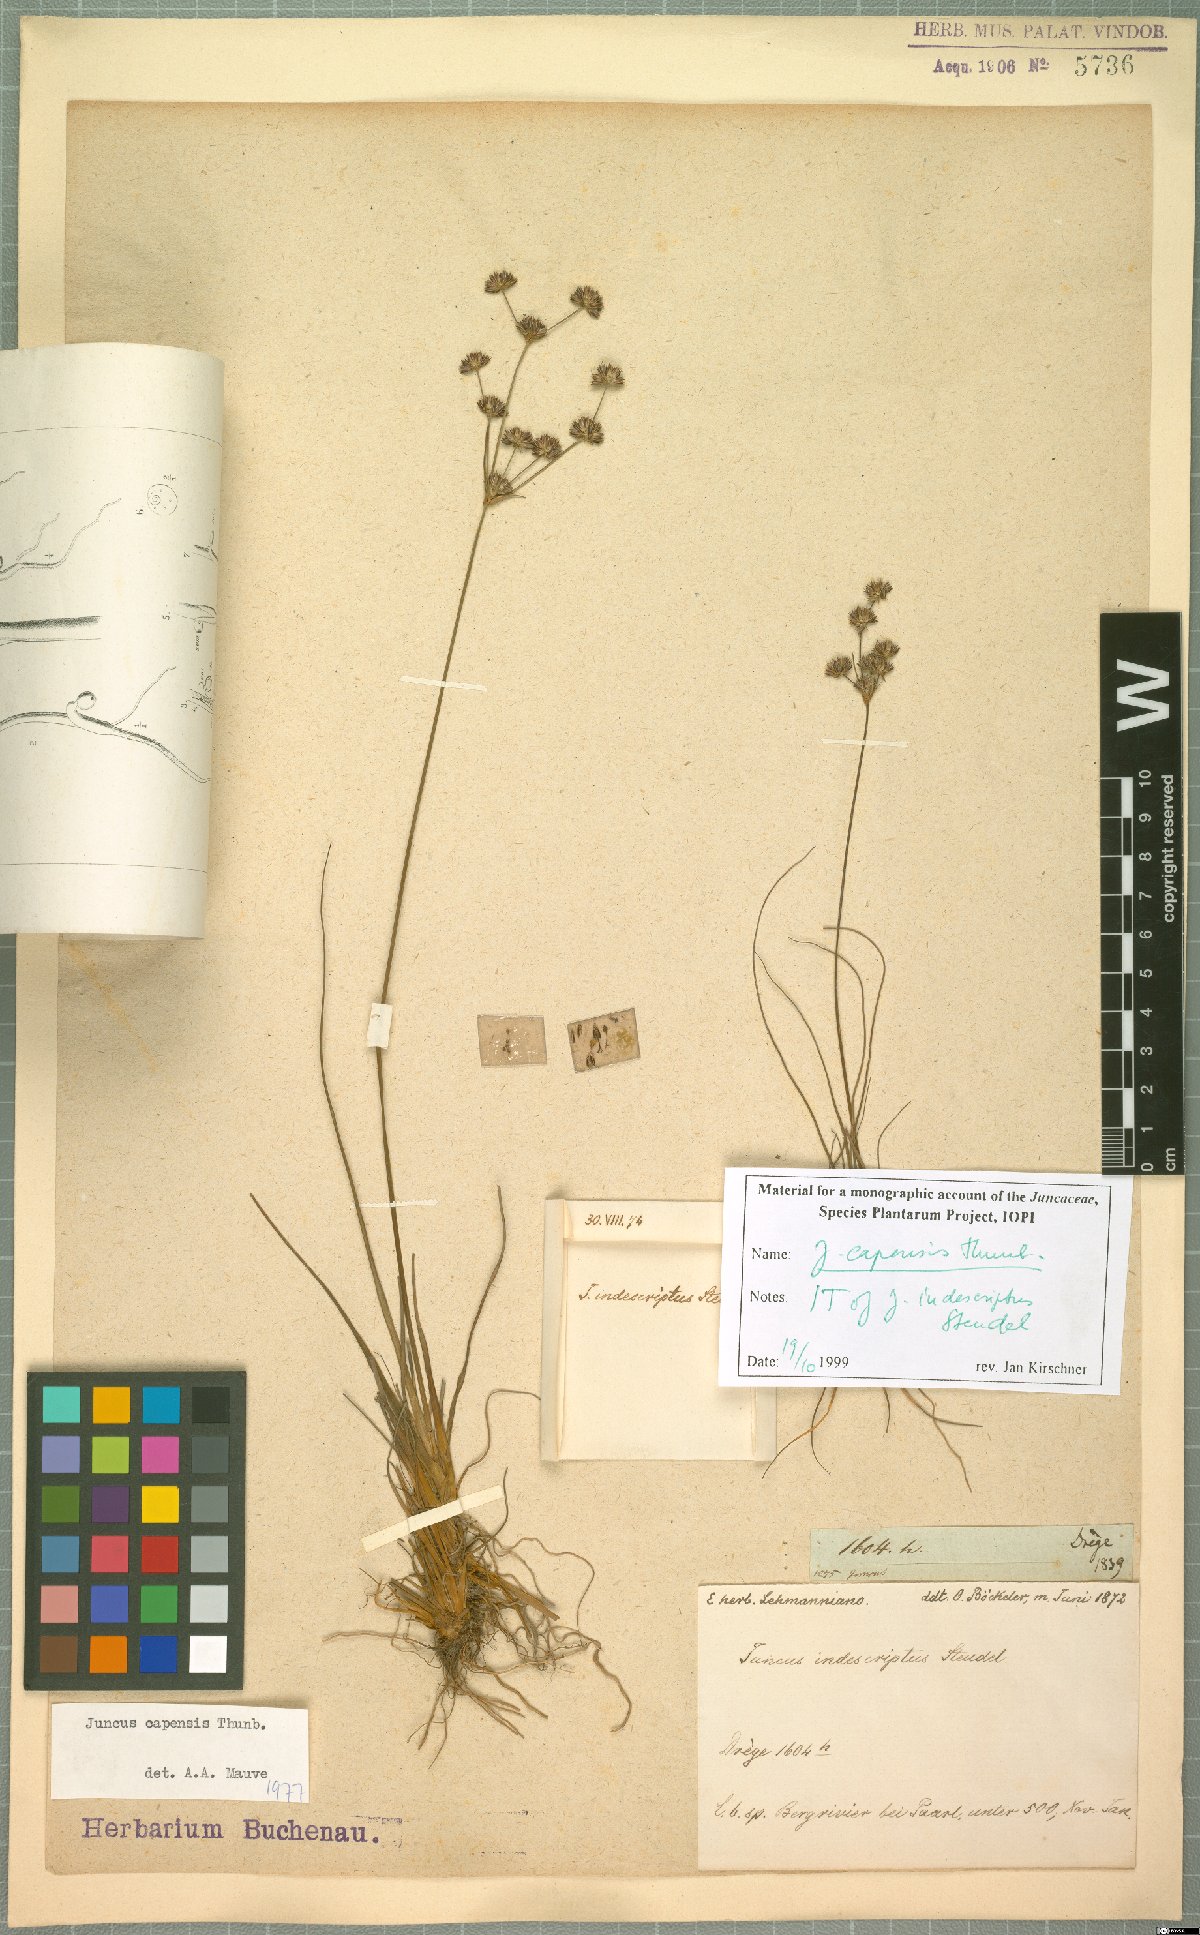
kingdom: Plantae
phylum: Tracheophyta
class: Liliopsida
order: Poales
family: Juncaceae
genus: Juncus
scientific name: Juncus capensis
